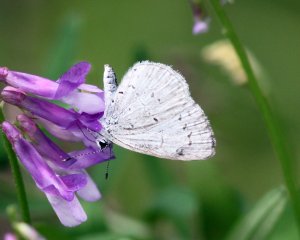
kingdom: Animalia
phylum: Arthropoda
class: Insecta
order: Lepidoptera
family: Lycaenidae
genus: Celastrina
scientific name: Celastrina ladon
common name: Spring Azure
